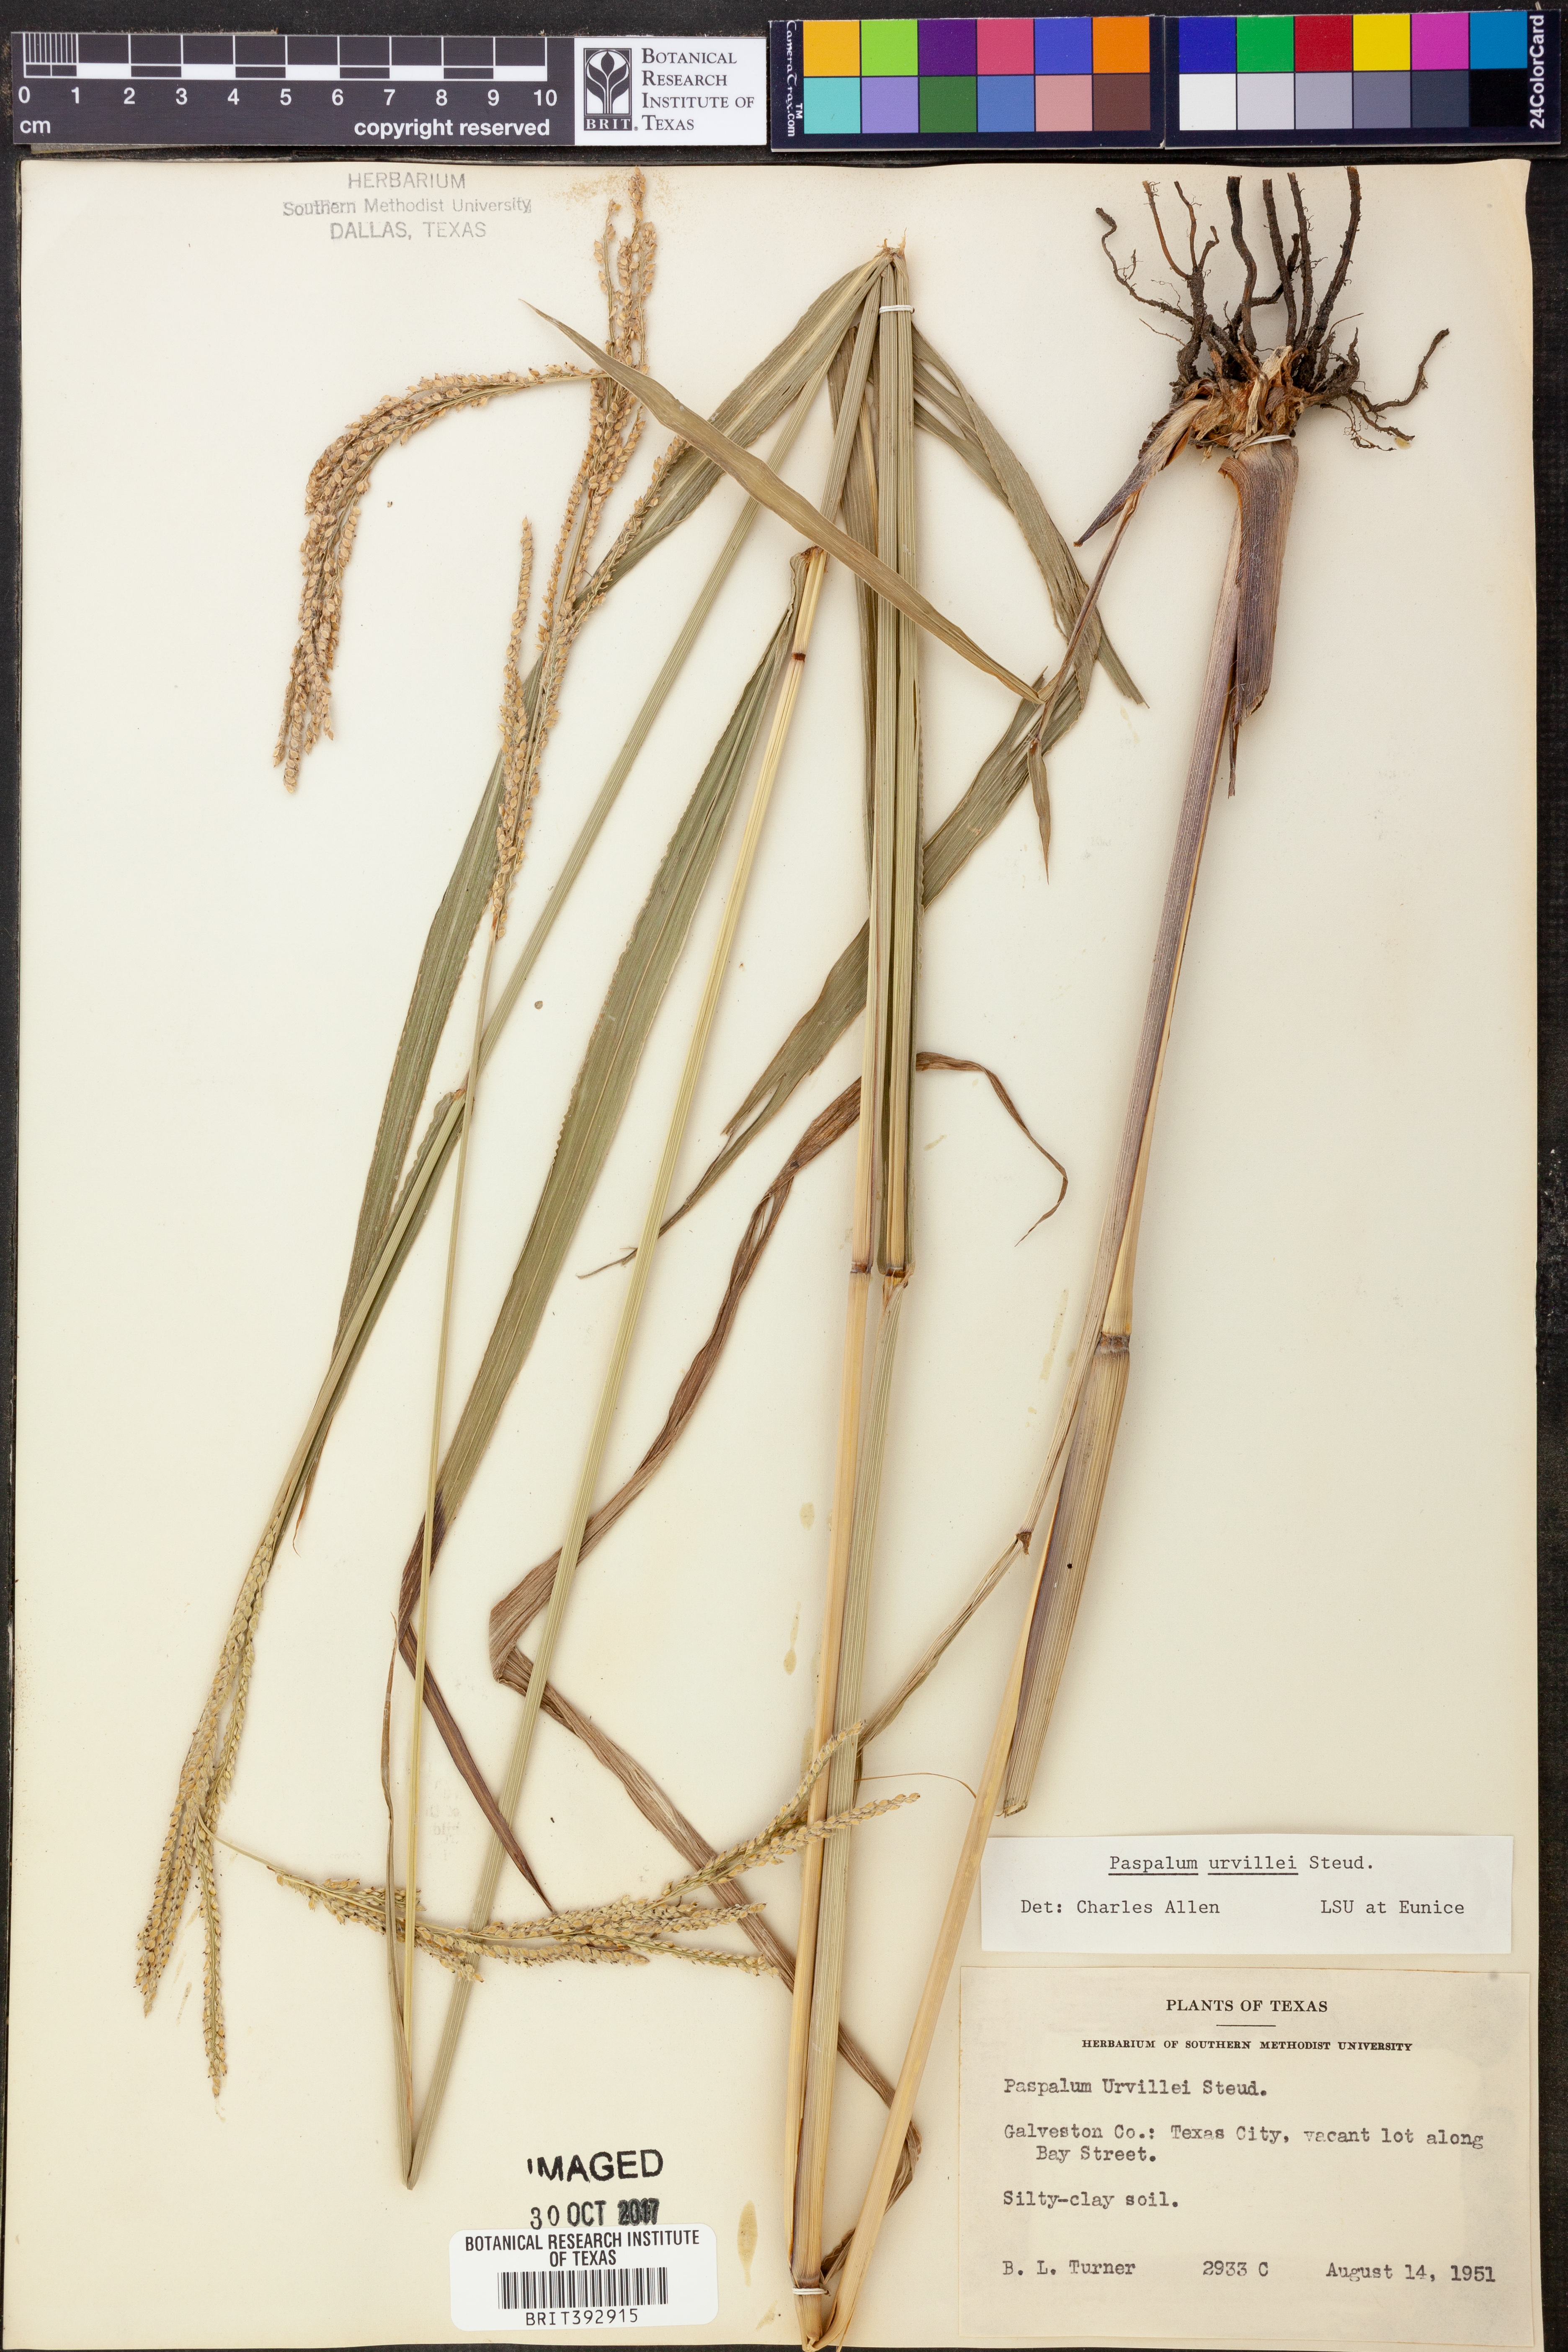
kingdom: Plantae
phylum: Tracheophyta
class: Liliopsida
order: Poales
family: Poaceae
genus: Paspalum
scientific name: Paspalum urvillei
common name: Vasey's grass
